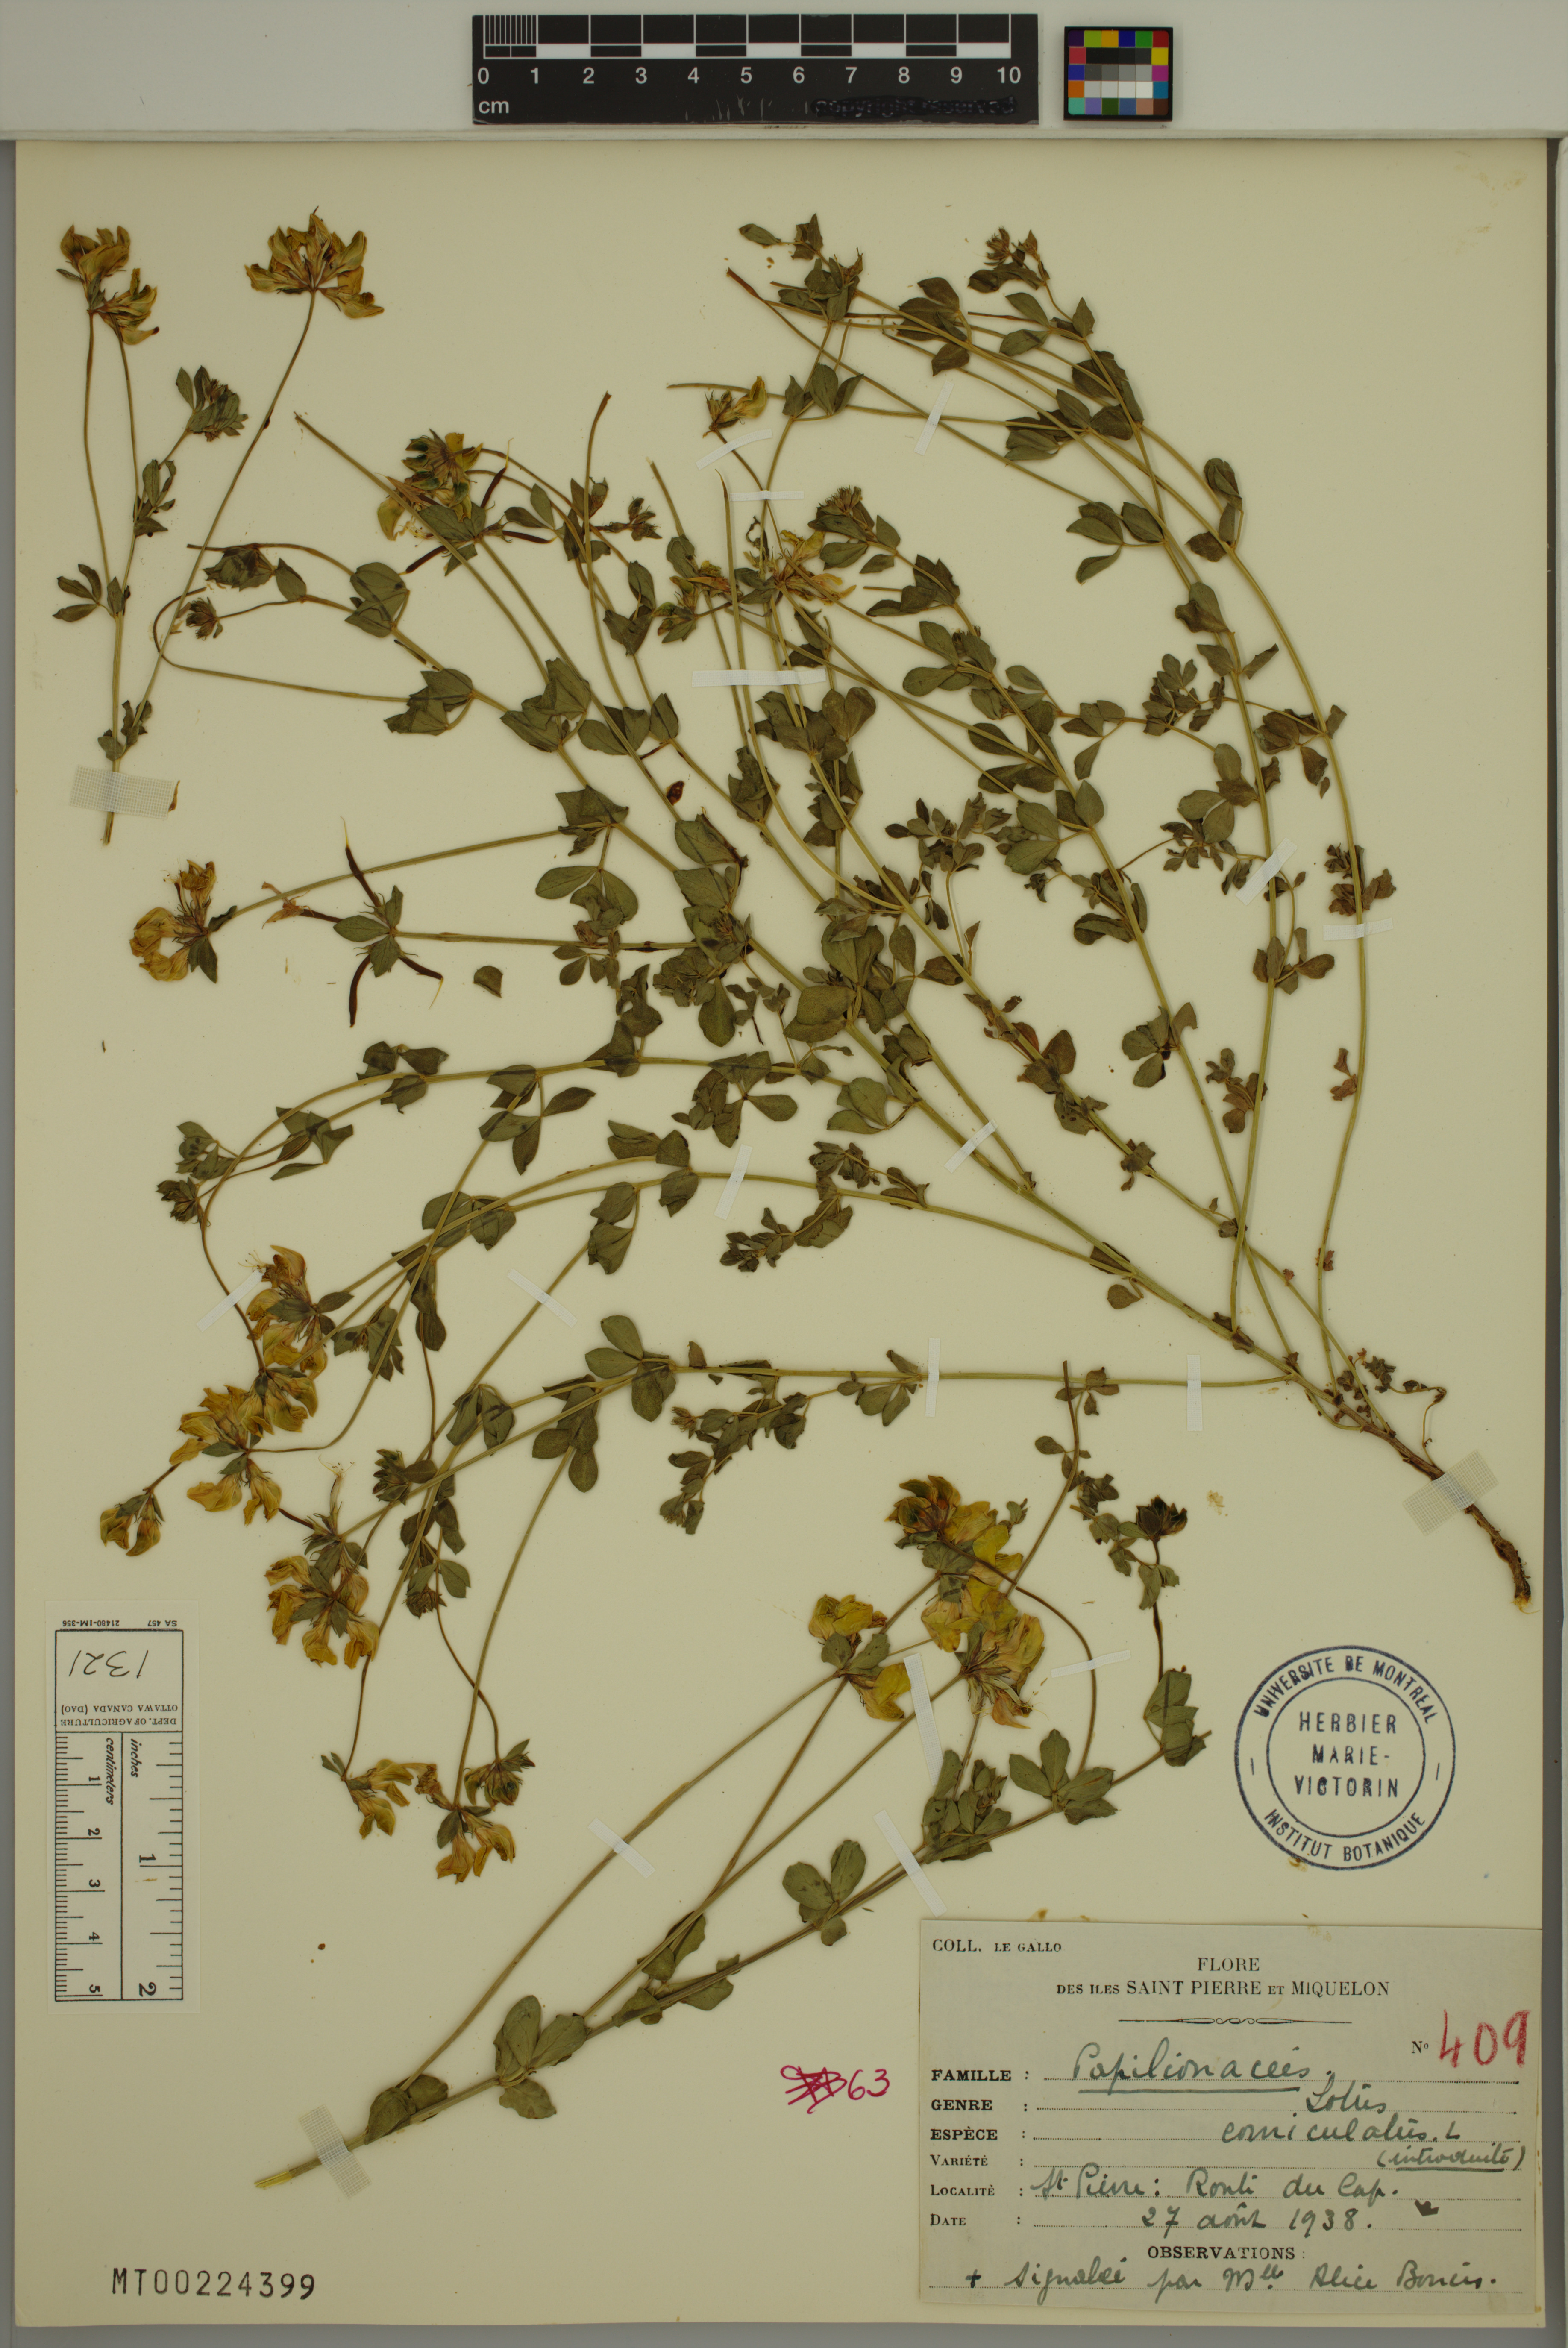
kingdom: Plantae
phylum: Tracheophyta
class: Magnoliopsida
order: Fabales
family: Fabaceae
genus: Lotus
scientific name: Lotus corniculatus
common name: Common bird's-foot-trefoil
